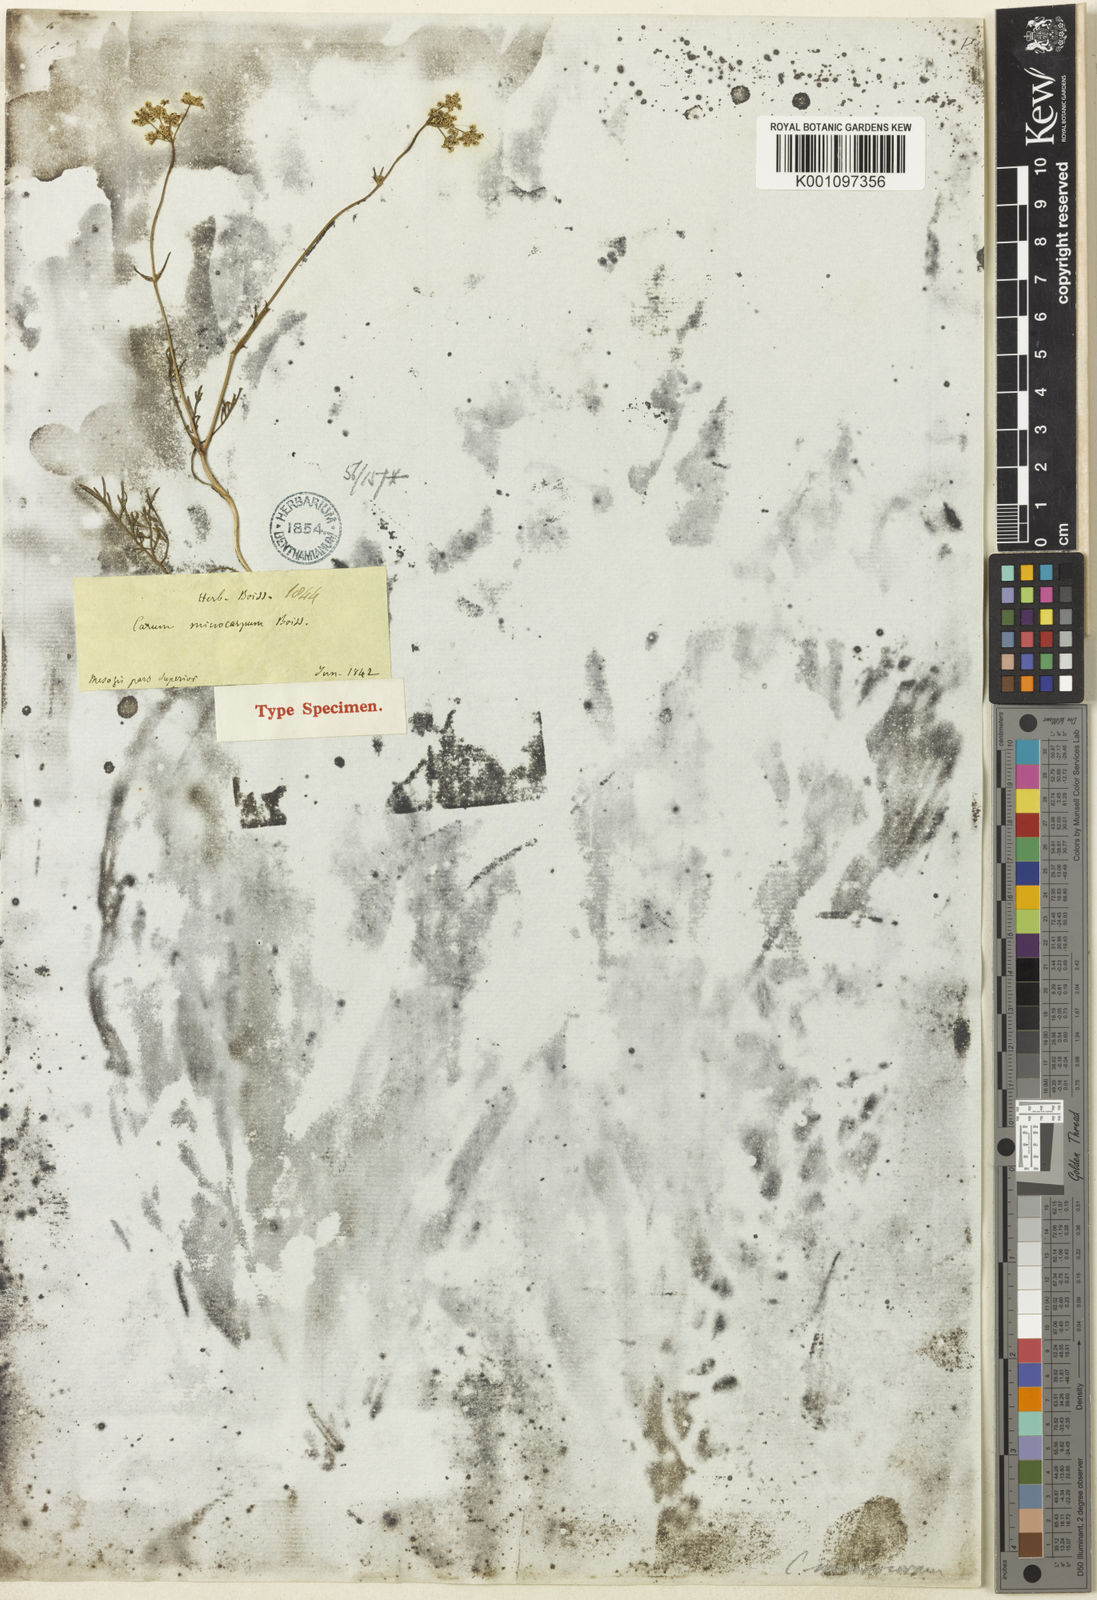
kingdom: Plantae
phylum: Tracheophyta
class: Magnoliopsida
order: Apiales
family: Apiaceae
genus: Bunium
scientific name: Bunium microcarpum
